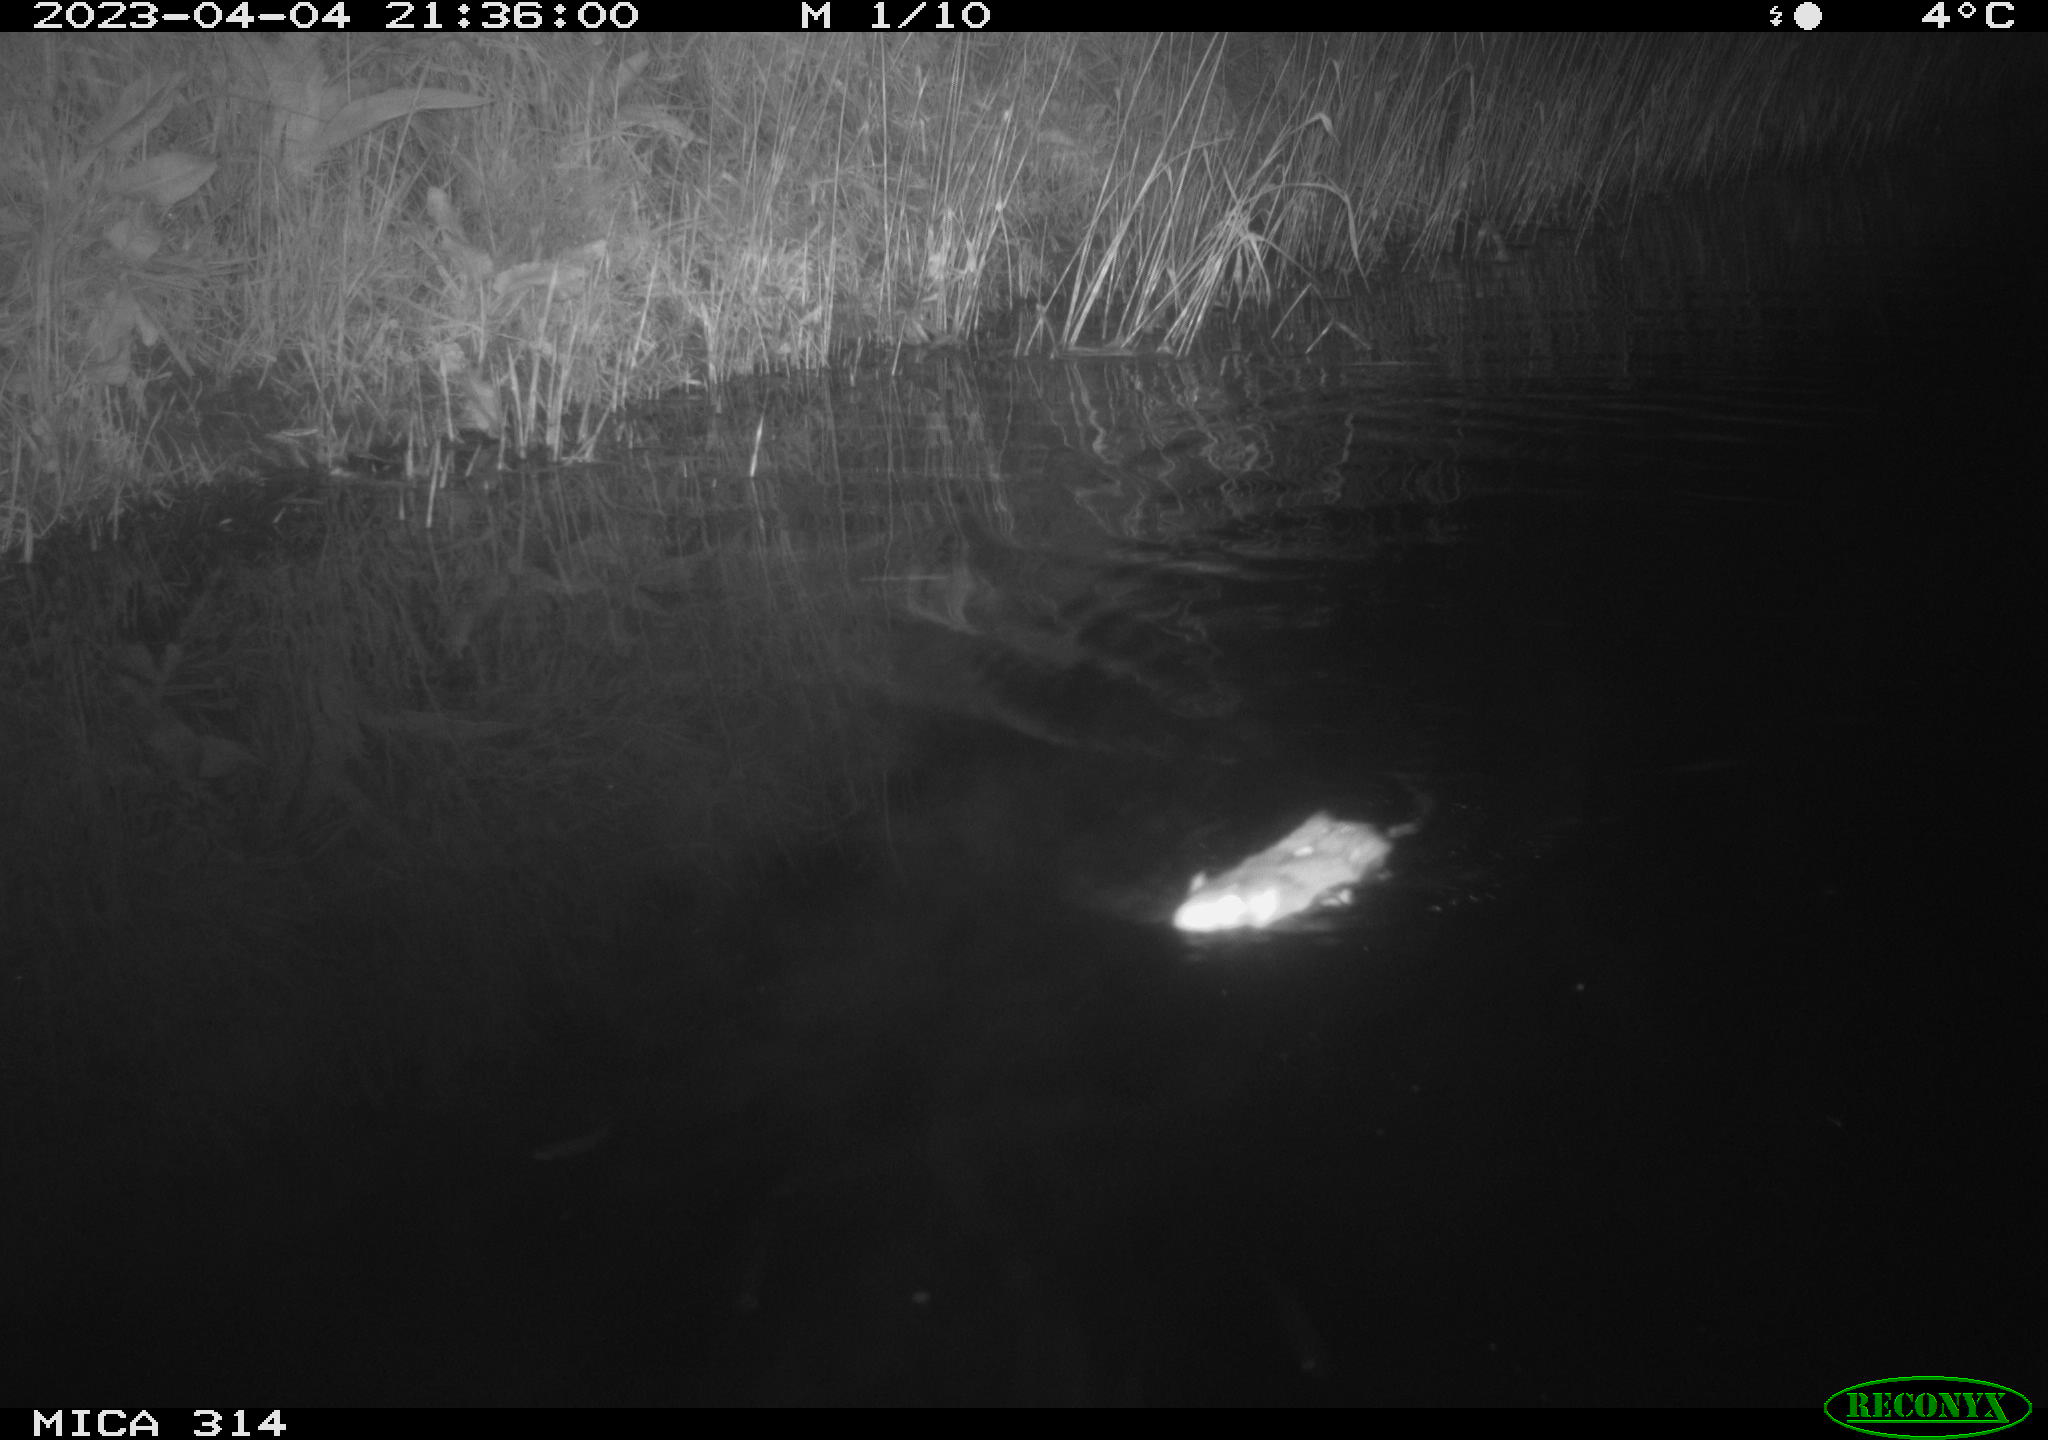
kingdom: Animalia
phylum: Chordata
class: Mammalia
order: Rodentia
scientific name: Rodentia
